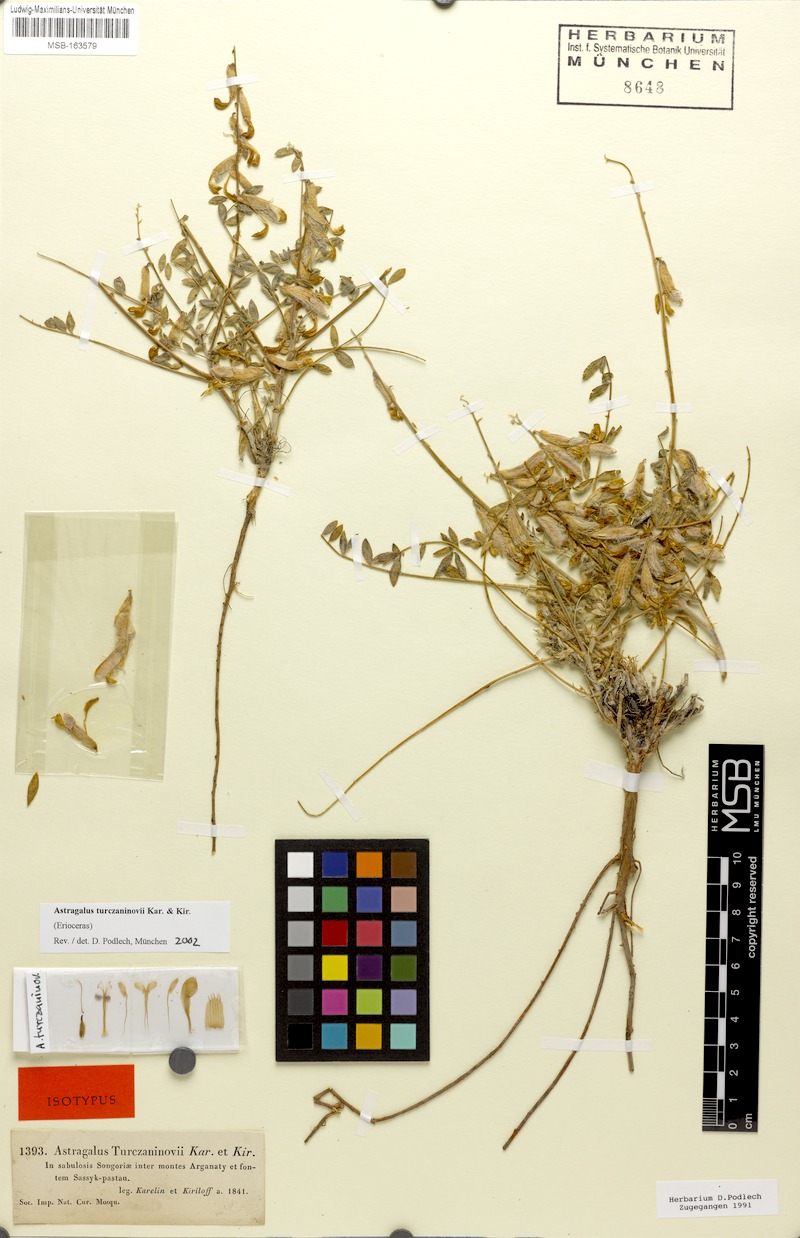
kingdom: Plantae
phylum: Tracheophyta
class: Magnoliopsida
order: Fabales
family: Fabaceae
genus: Astragalus
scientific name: Astragalus turczaninovii
